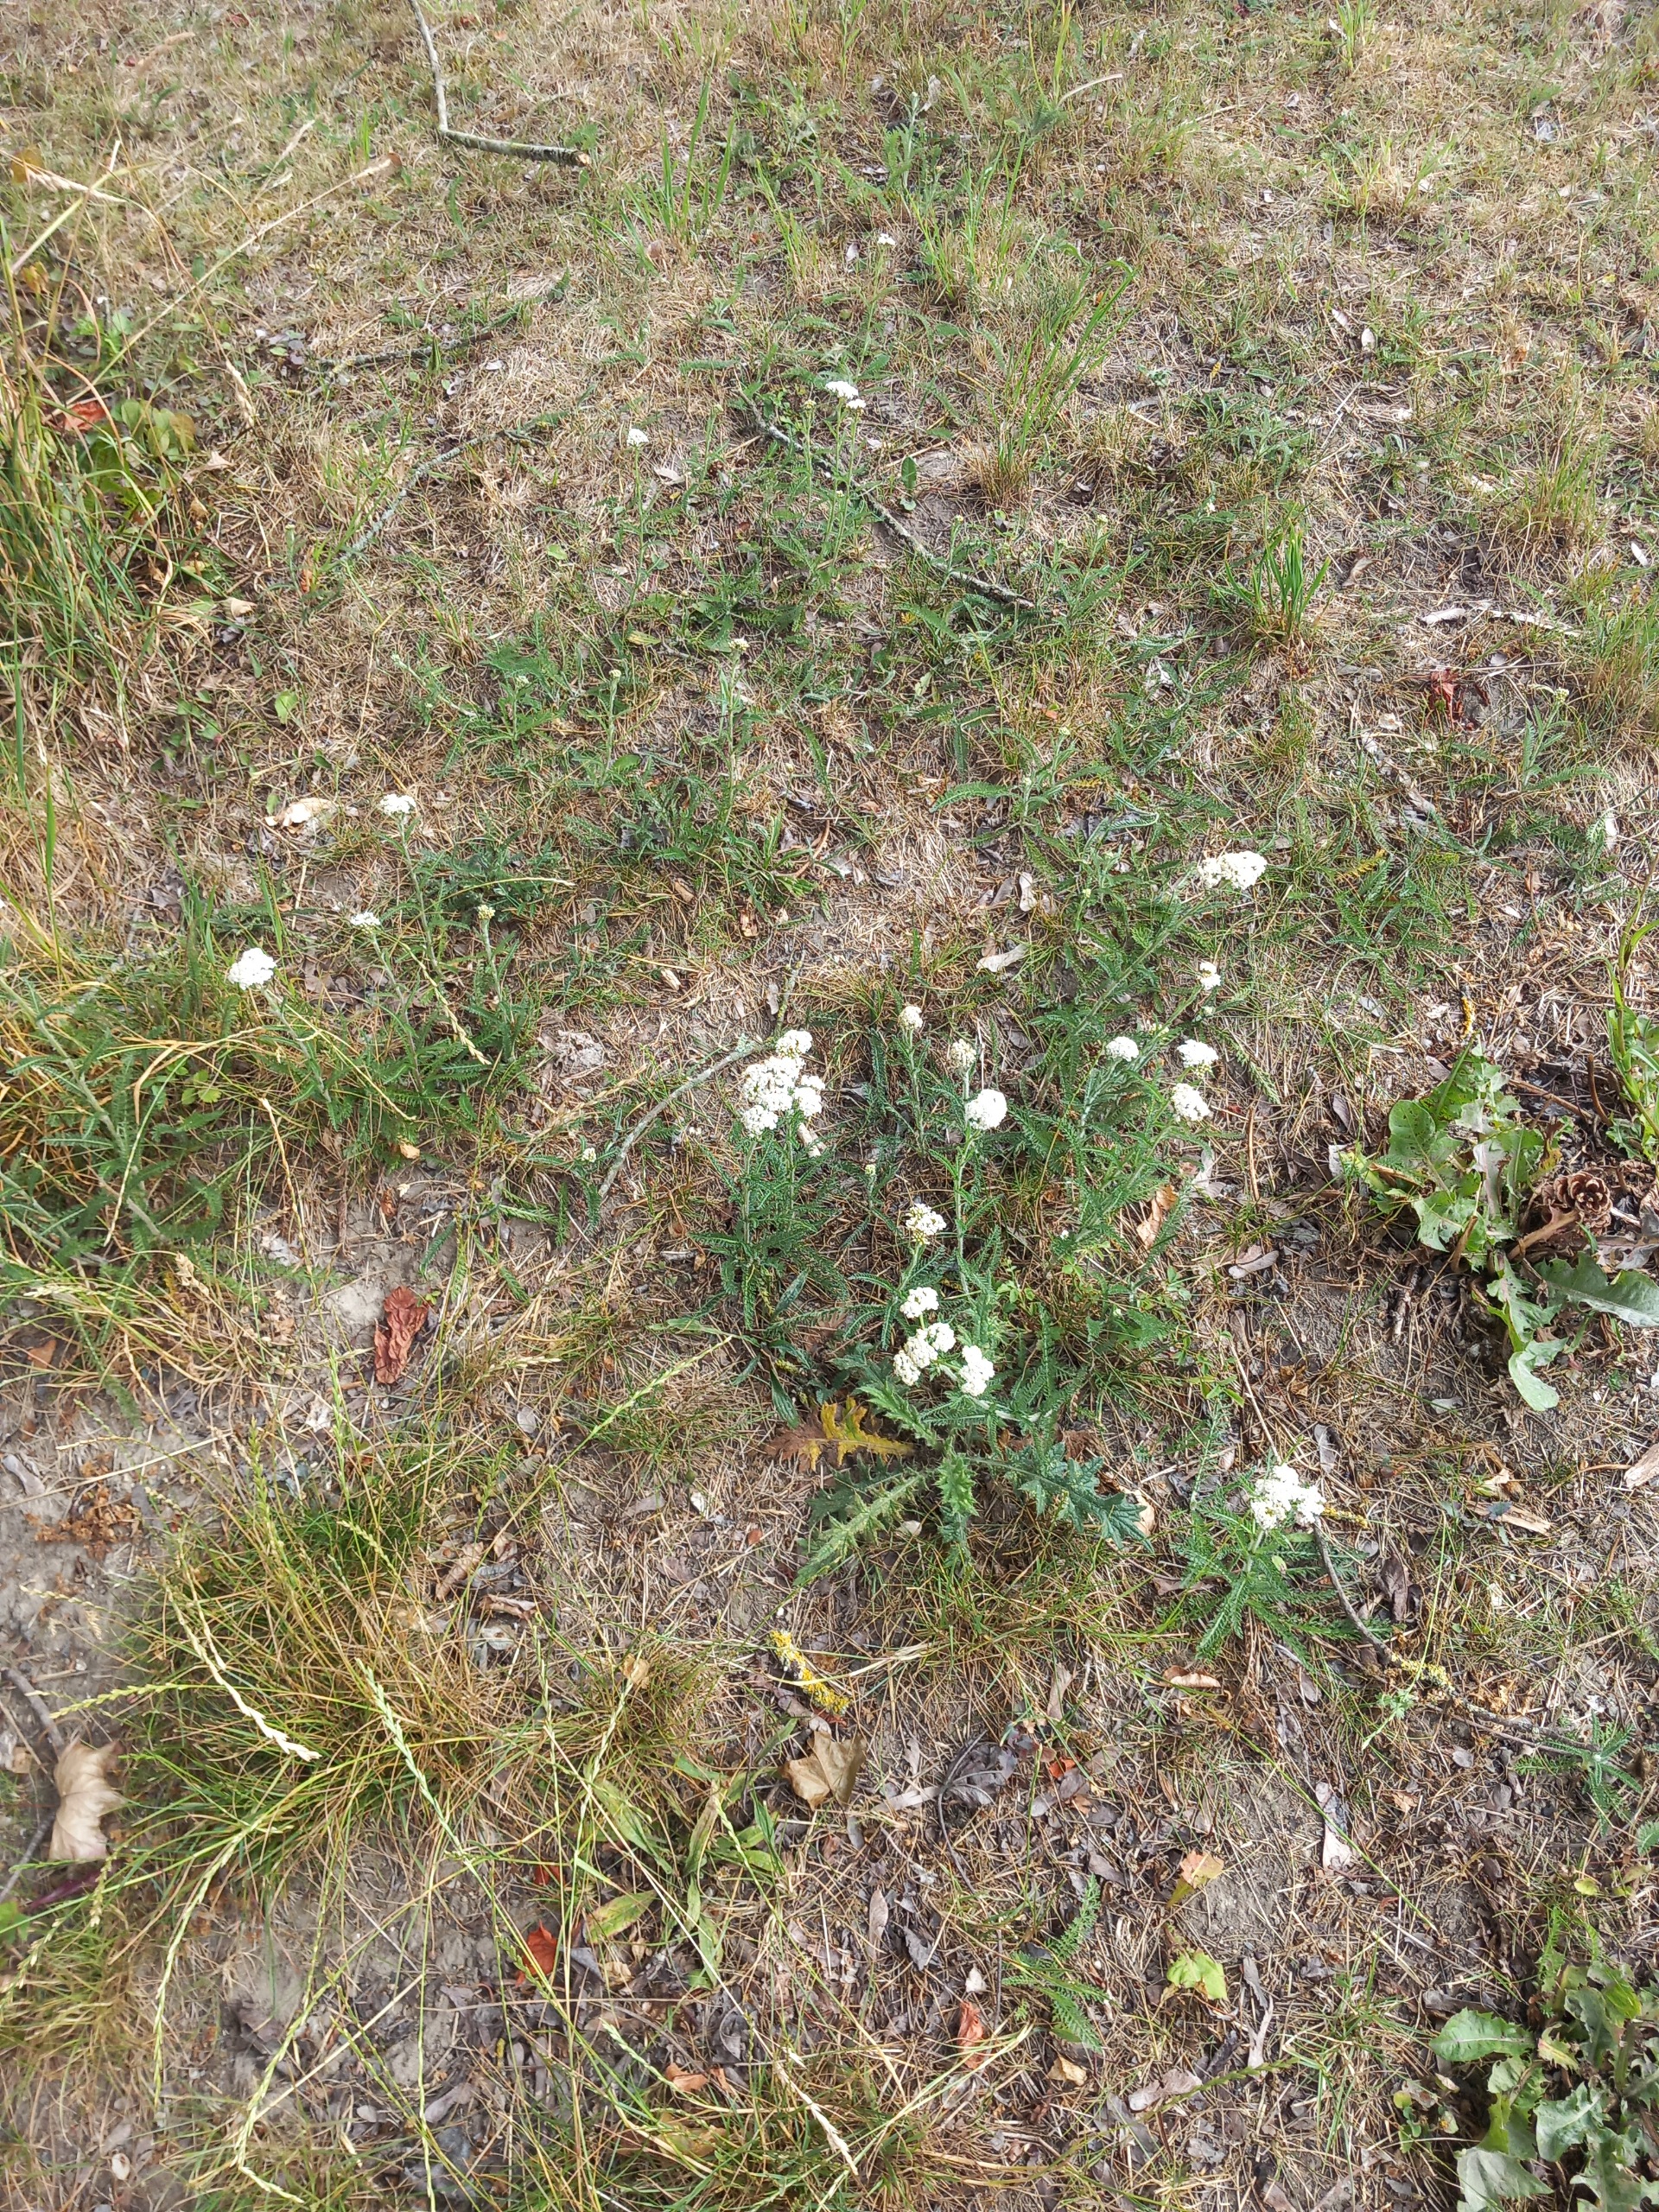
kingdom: Plantae
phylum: Tracheophyta
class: Magnoliopsida
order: Asterales
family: Asteraceae
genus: Achillea
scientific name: Achillea millefolium
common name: Almindelig røllike
